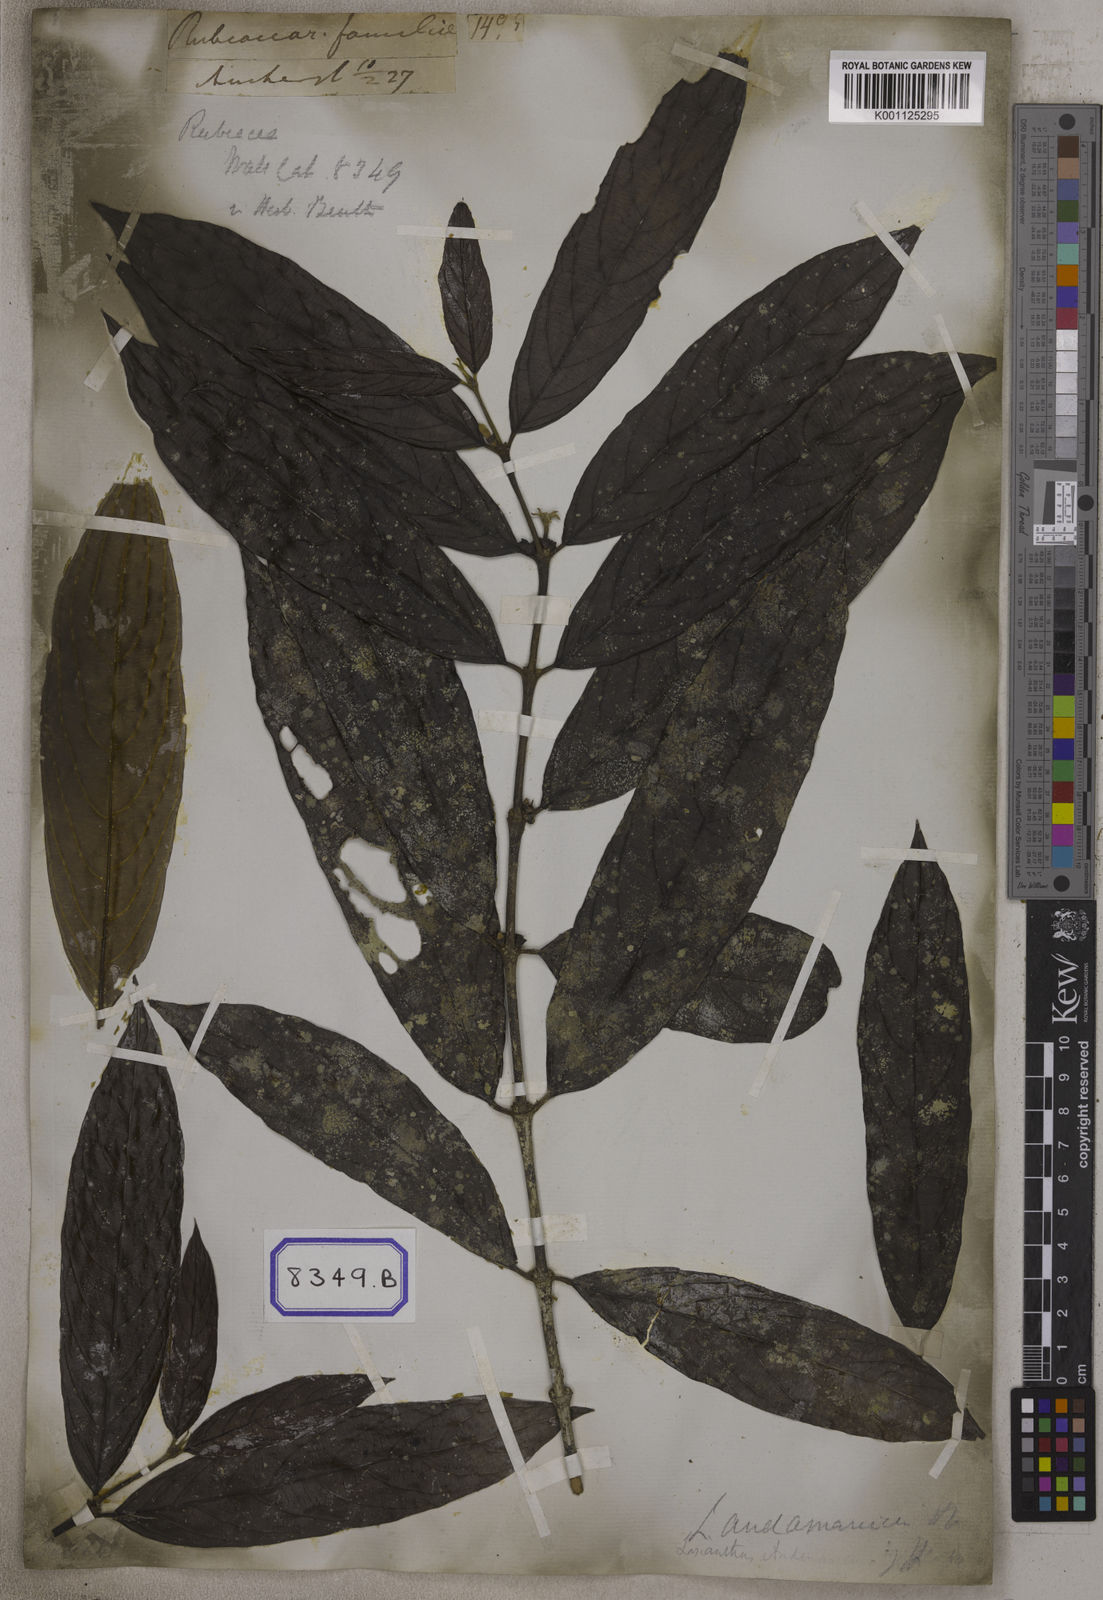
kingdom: Plantae
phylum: Tracheophyta
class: Magnoliopsida
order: Gentianales
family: Rubiaceae
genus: Psychotria
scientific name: Psychotria adenophylla
